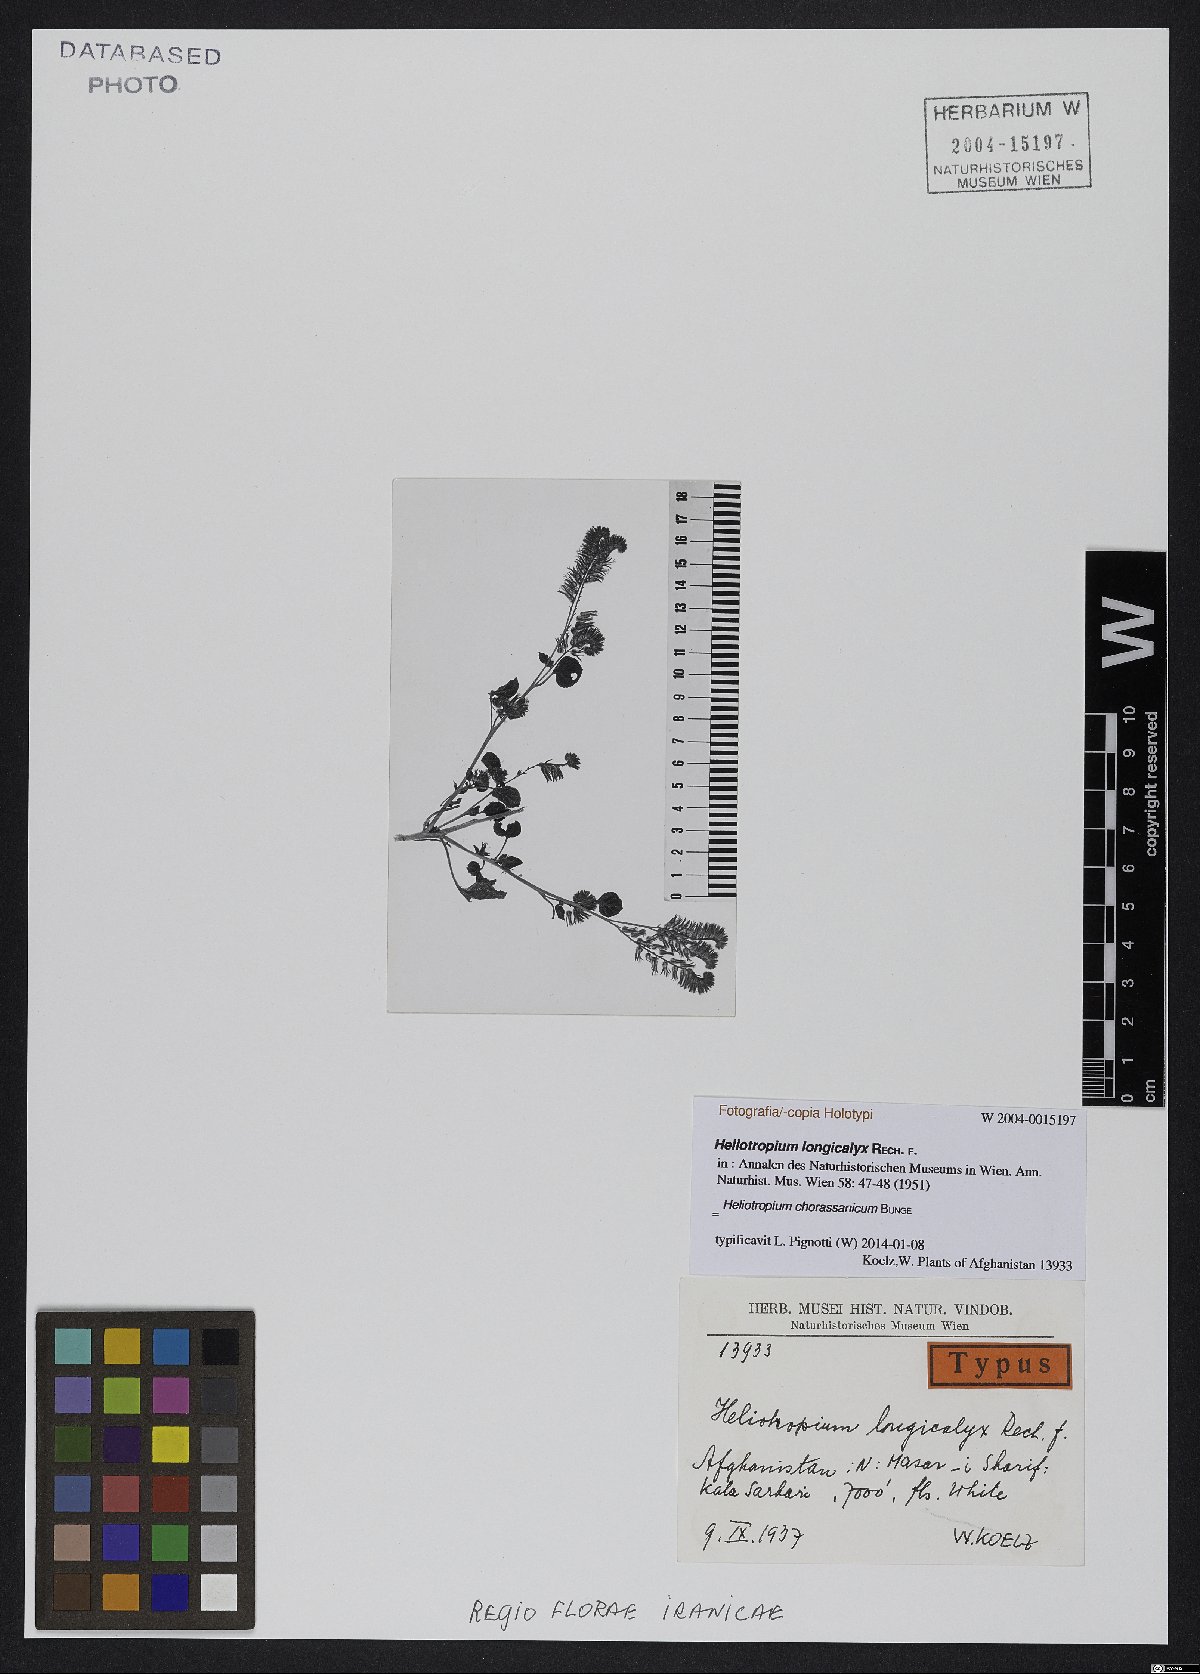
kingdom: Plantae
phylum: Tracheophyta
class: Magnoliopsida
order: Boraginales
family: Heliotropiaceae
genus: Heliotropium
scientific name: Heliotropium chorassanicum
